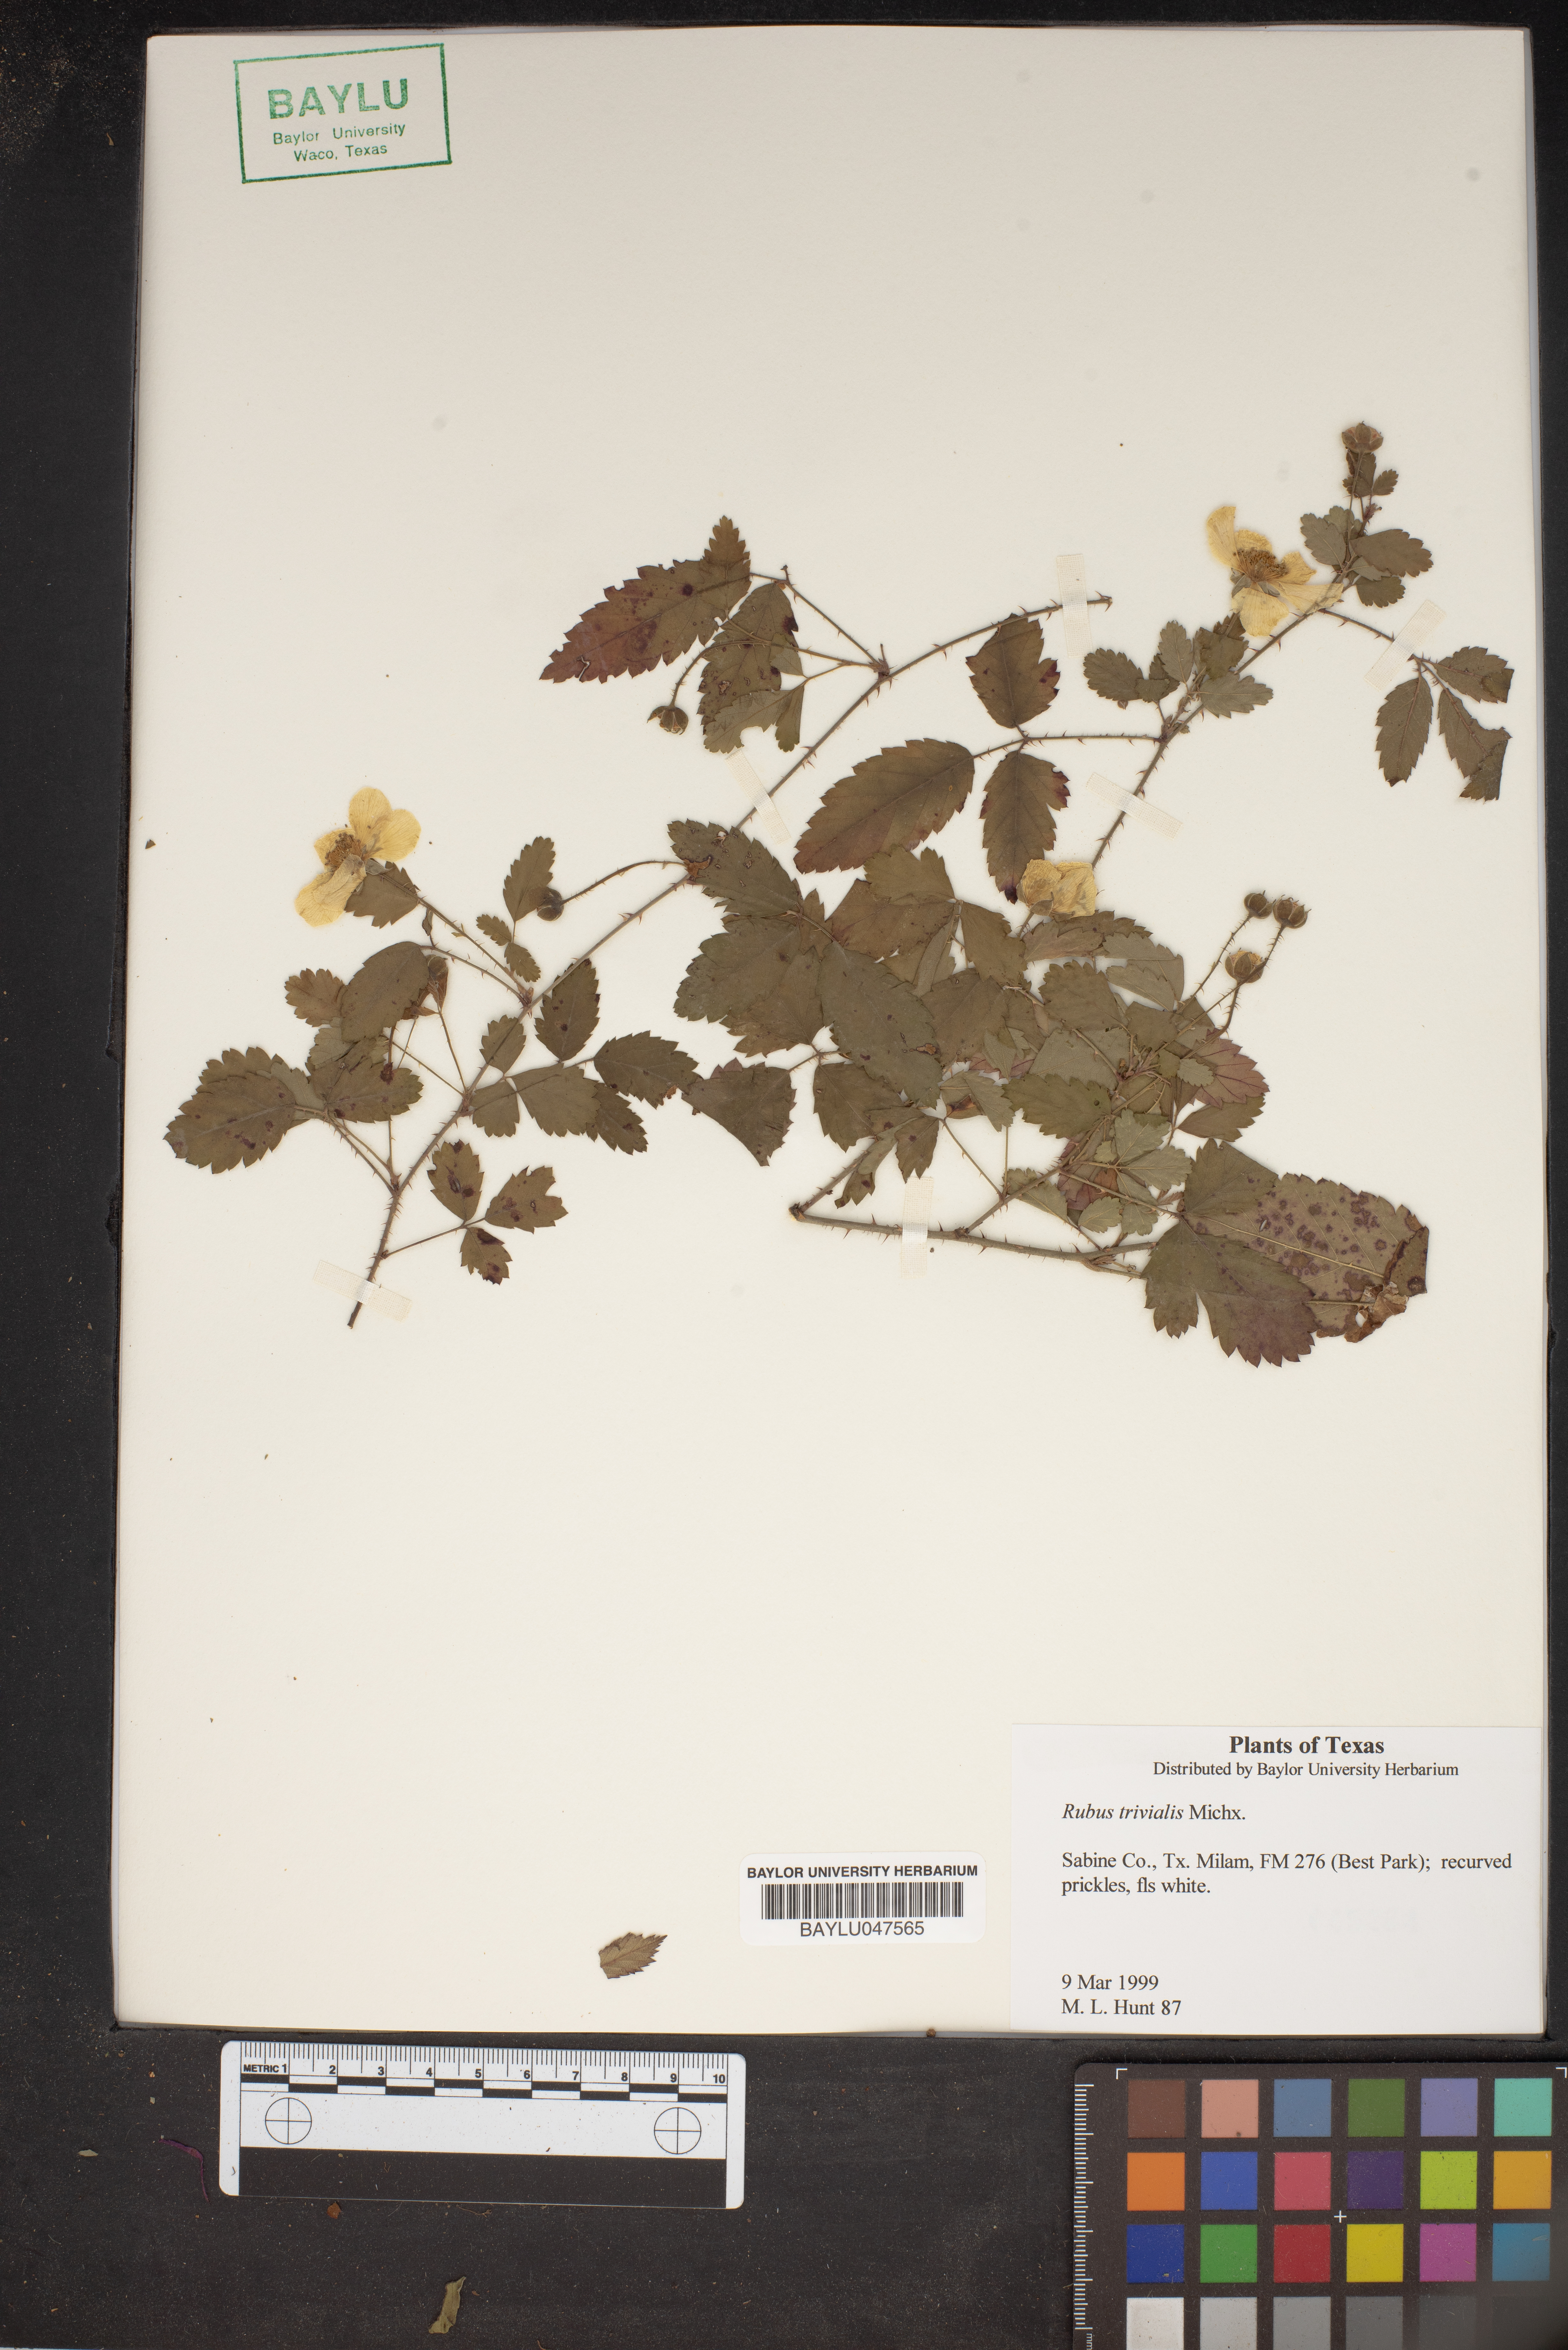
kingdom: Plantae
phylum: Tracheophyta
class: Magnoliopsida
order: Rosales
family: Rosaceae
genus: Rubus
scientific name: Rubus trivialis
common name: Southern dewberry
